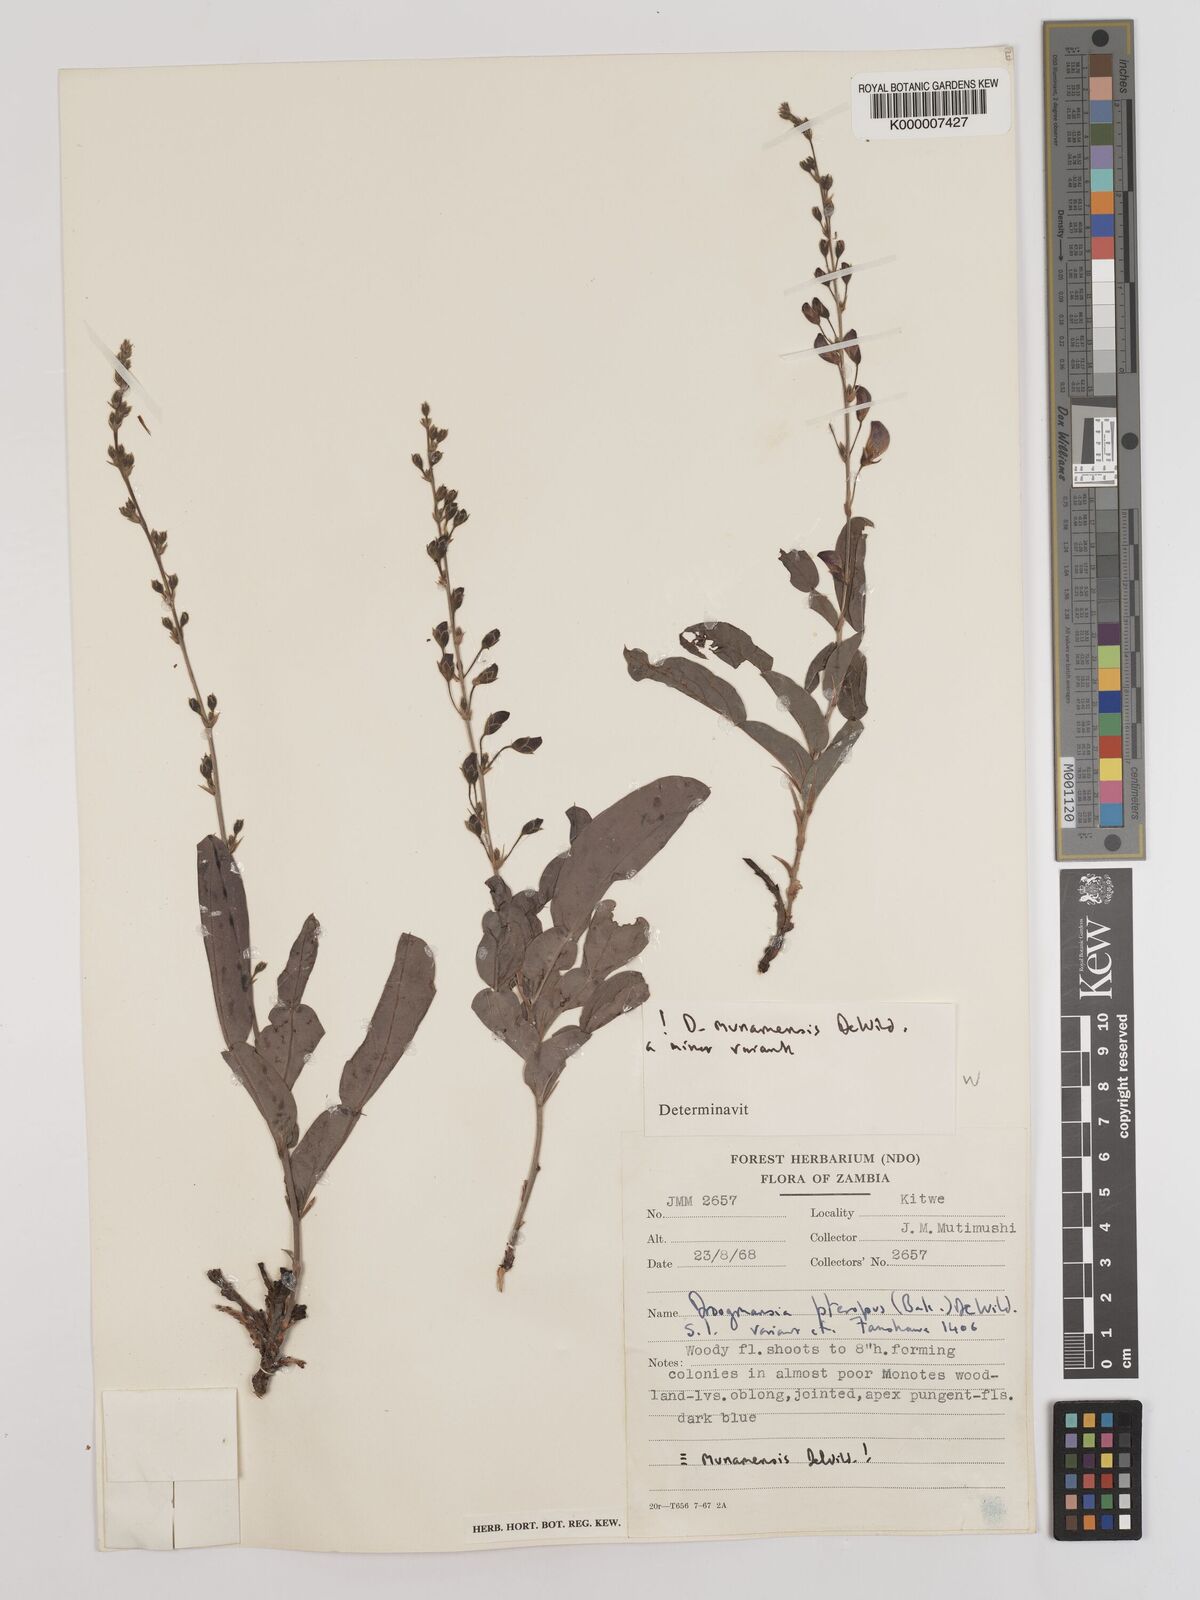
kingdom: Plantae
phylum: Tracheophyta
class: Magnoliopsida
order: Fabales
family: Fabaceae
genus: Droogmansia
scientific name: Droogmansia pteropus
